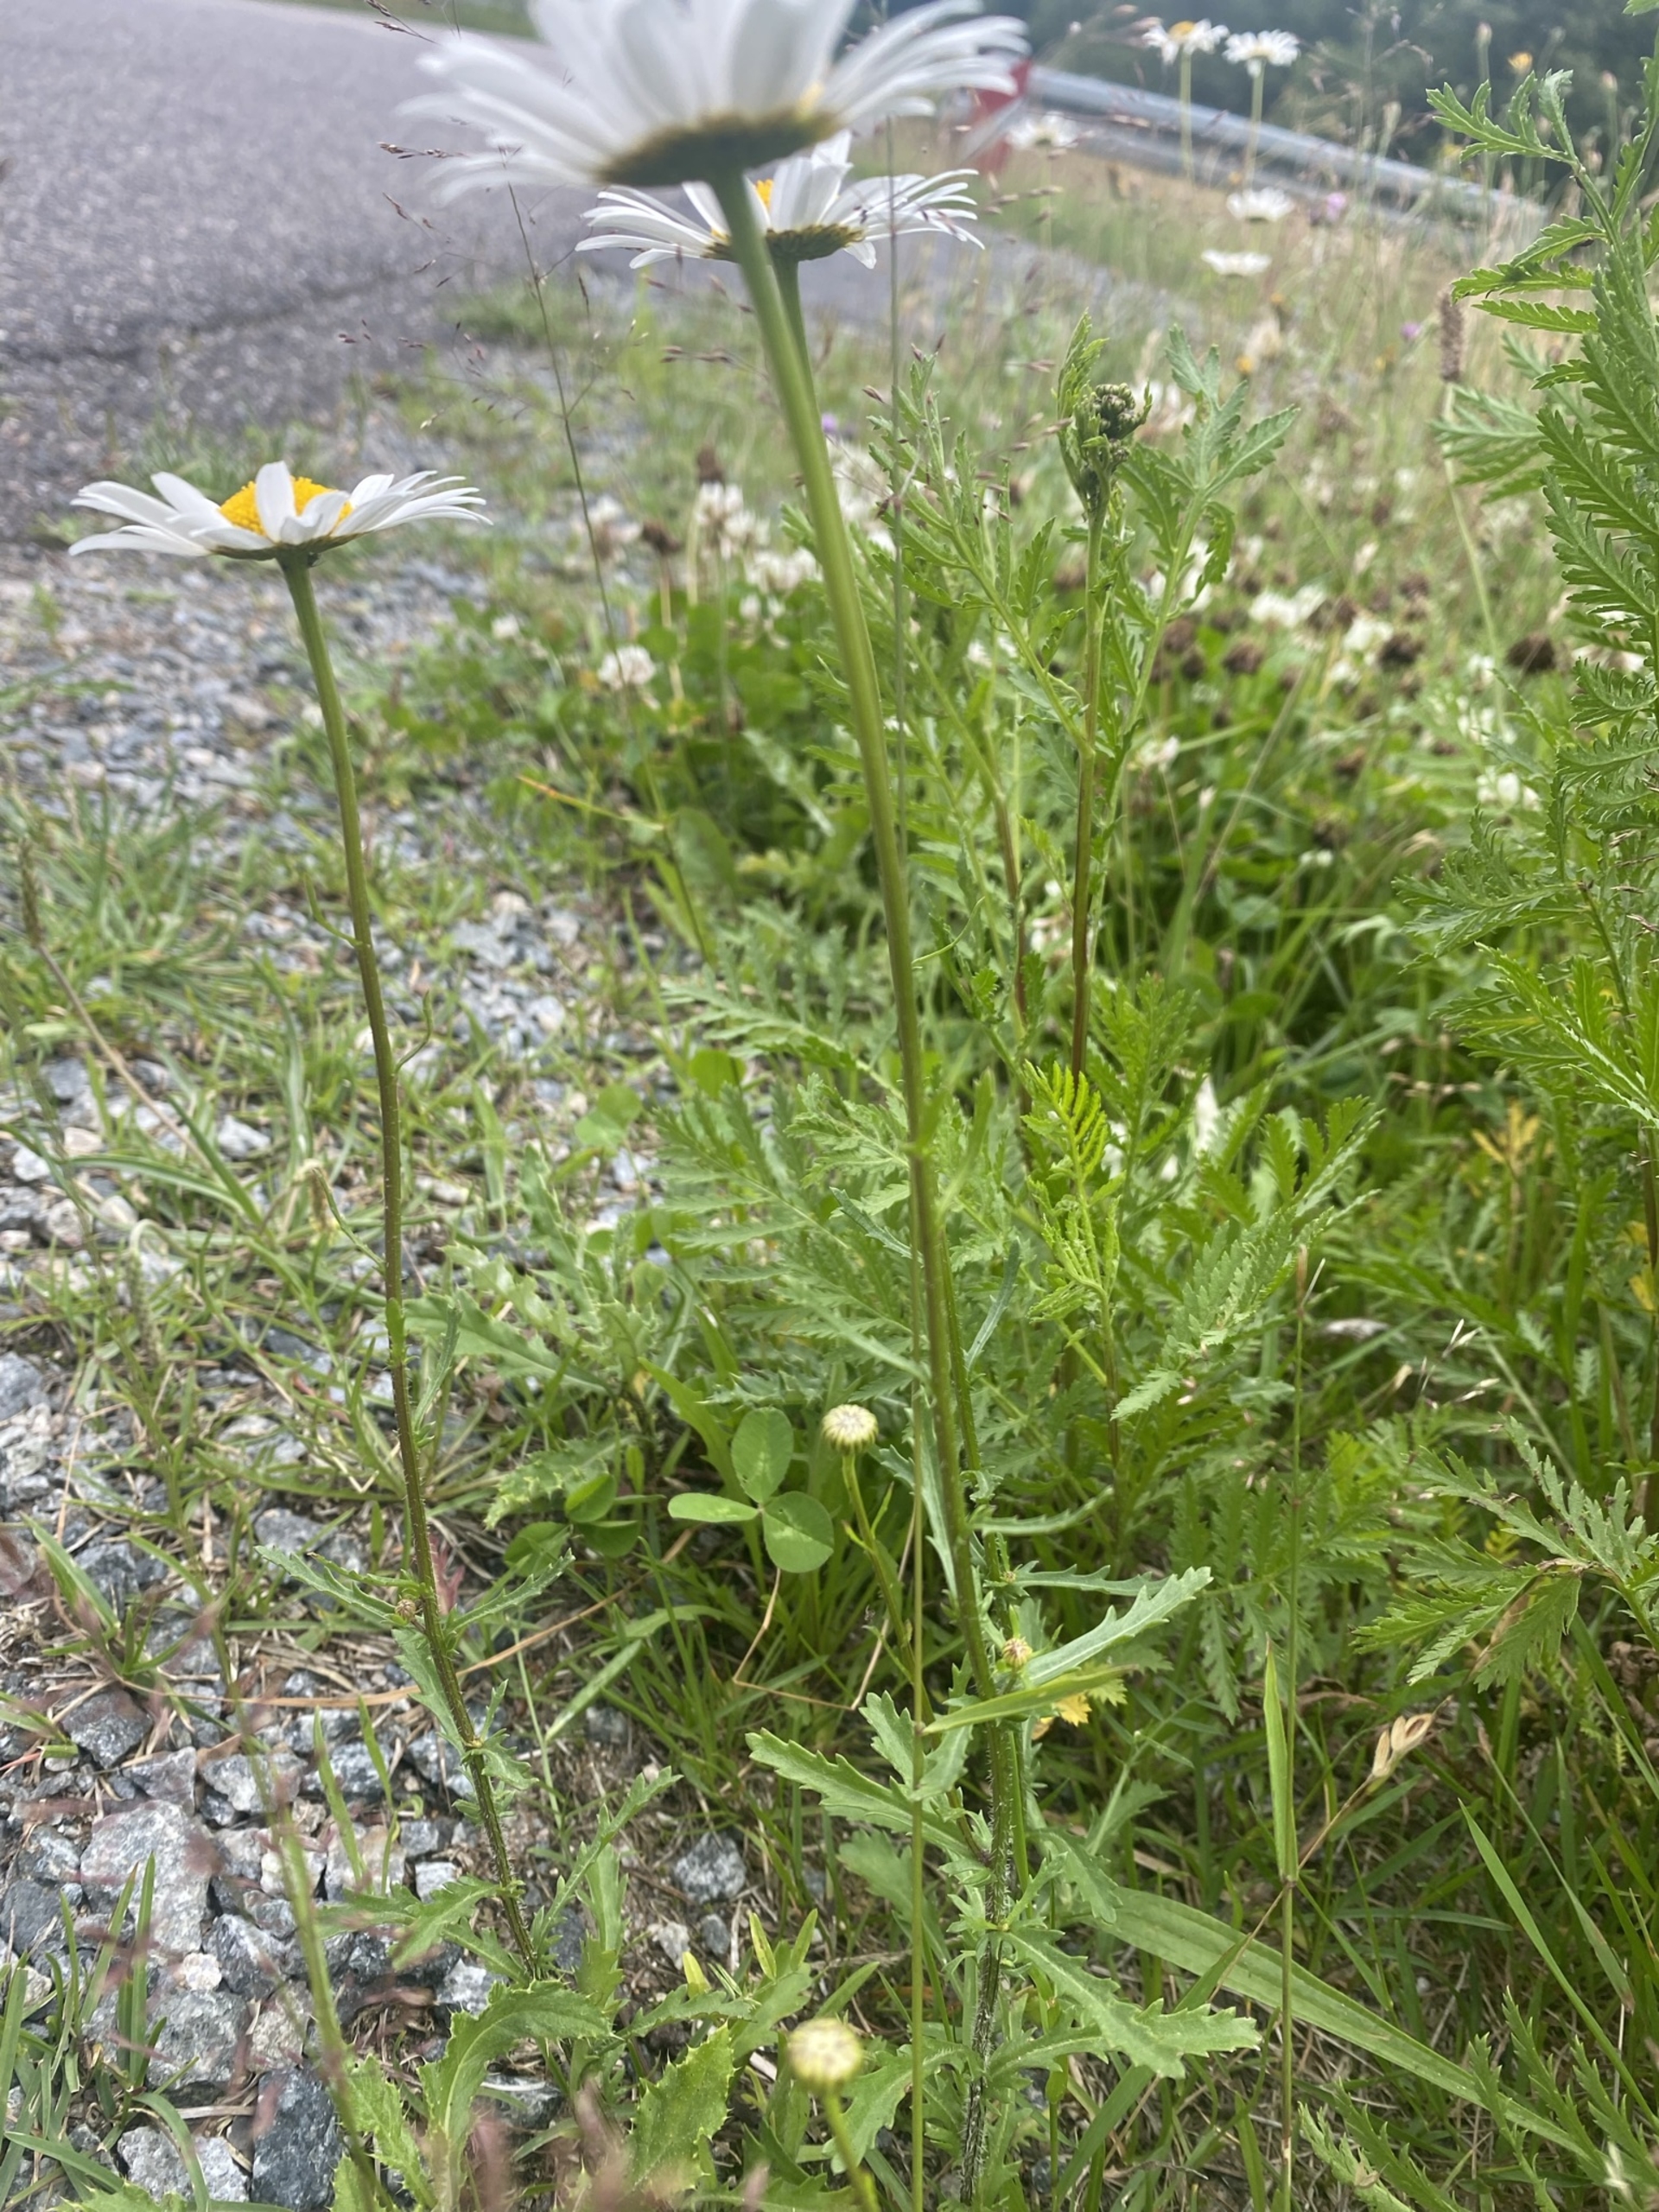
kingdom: Plantae
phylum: Tracheophyta
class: Magnoliopsida
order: Asterales
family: Asteraceae
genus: Leucanthemum
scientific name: Leucanthemum vulgare
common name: Hvid okseøje
